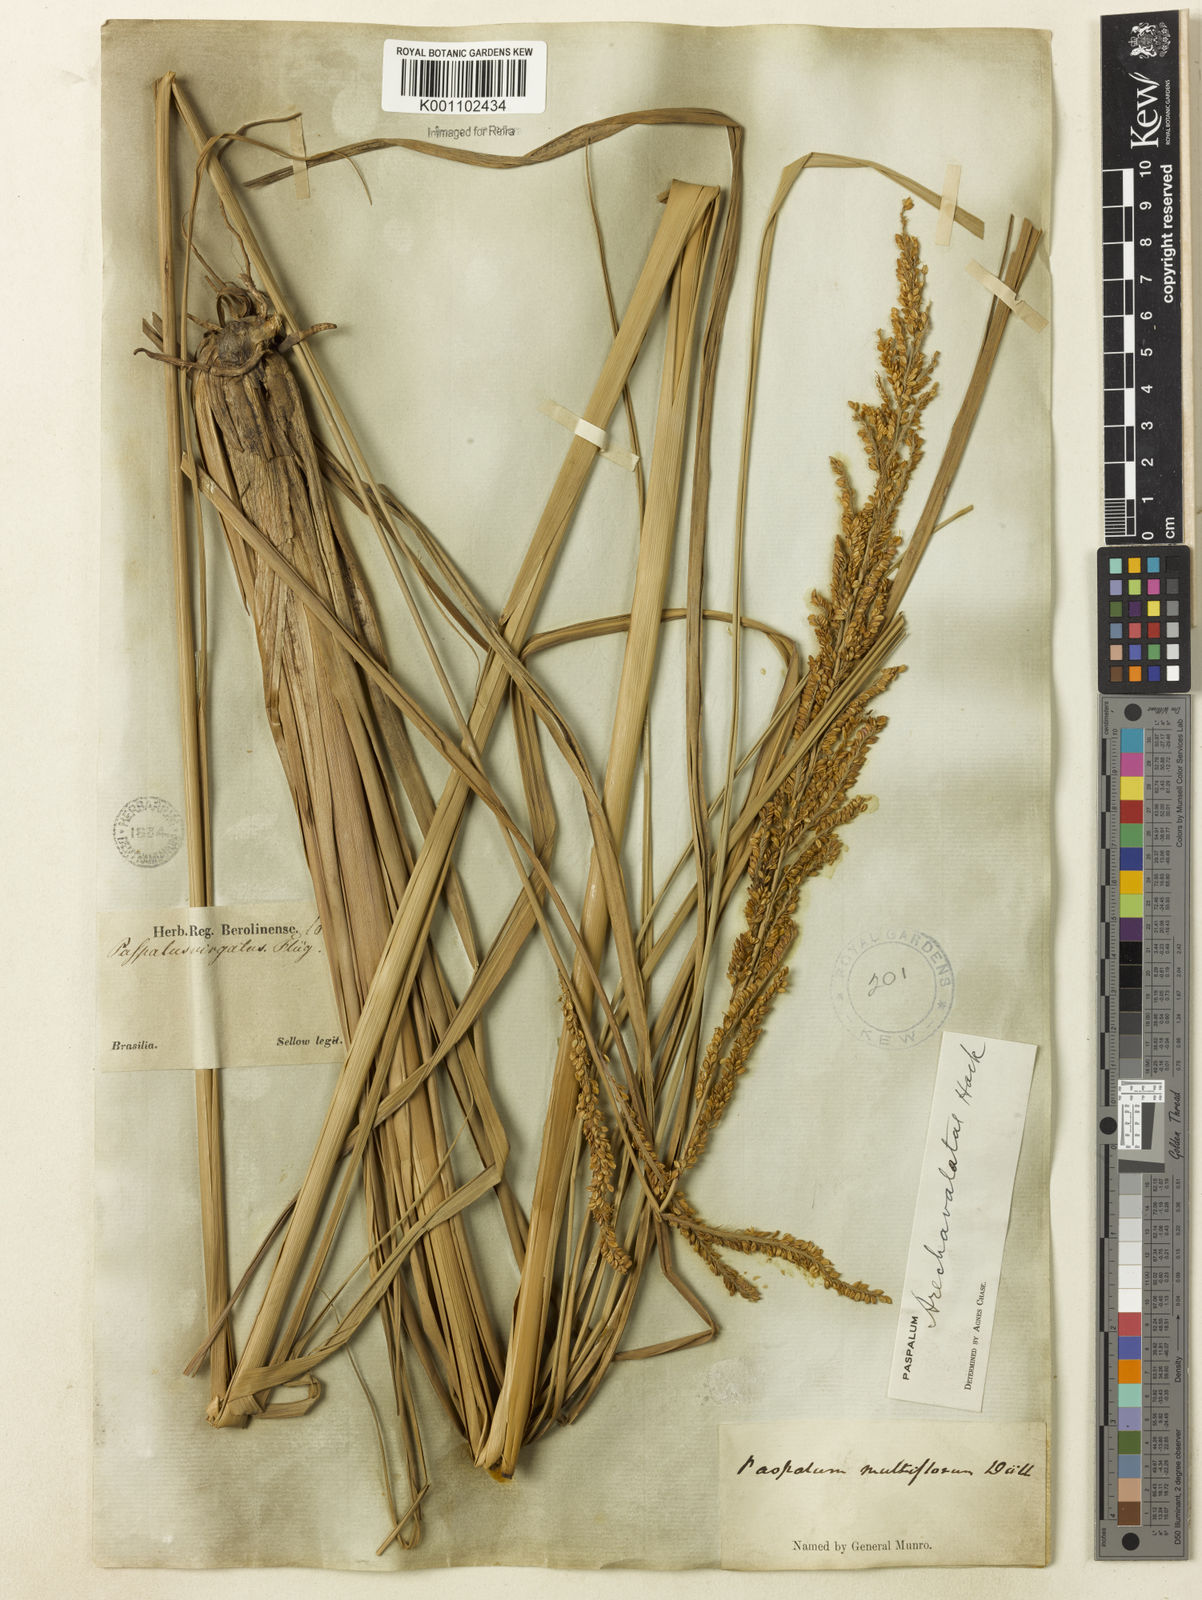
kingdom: Plantae
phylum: Tracheophyta
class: Liliopsida
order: Poales
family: Poaceae
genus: Paspalum
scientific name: Paspalum exaltatum
